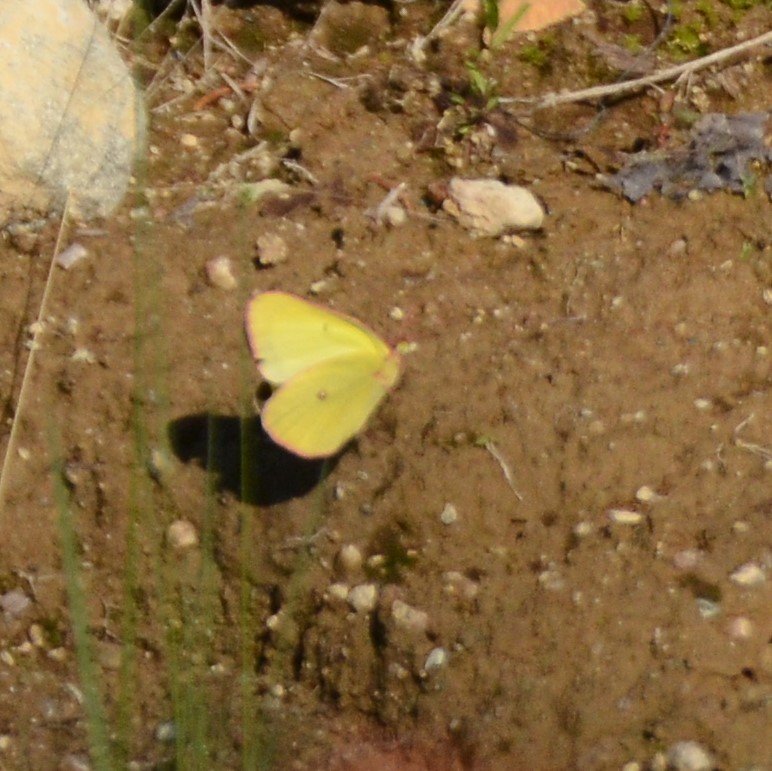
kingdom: Animalia
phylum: Arthropoda
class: Insecta
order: Lepidoptera
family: Pieridae
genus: Colias
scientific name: Colias interior
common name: Pink-edged Sulphur
